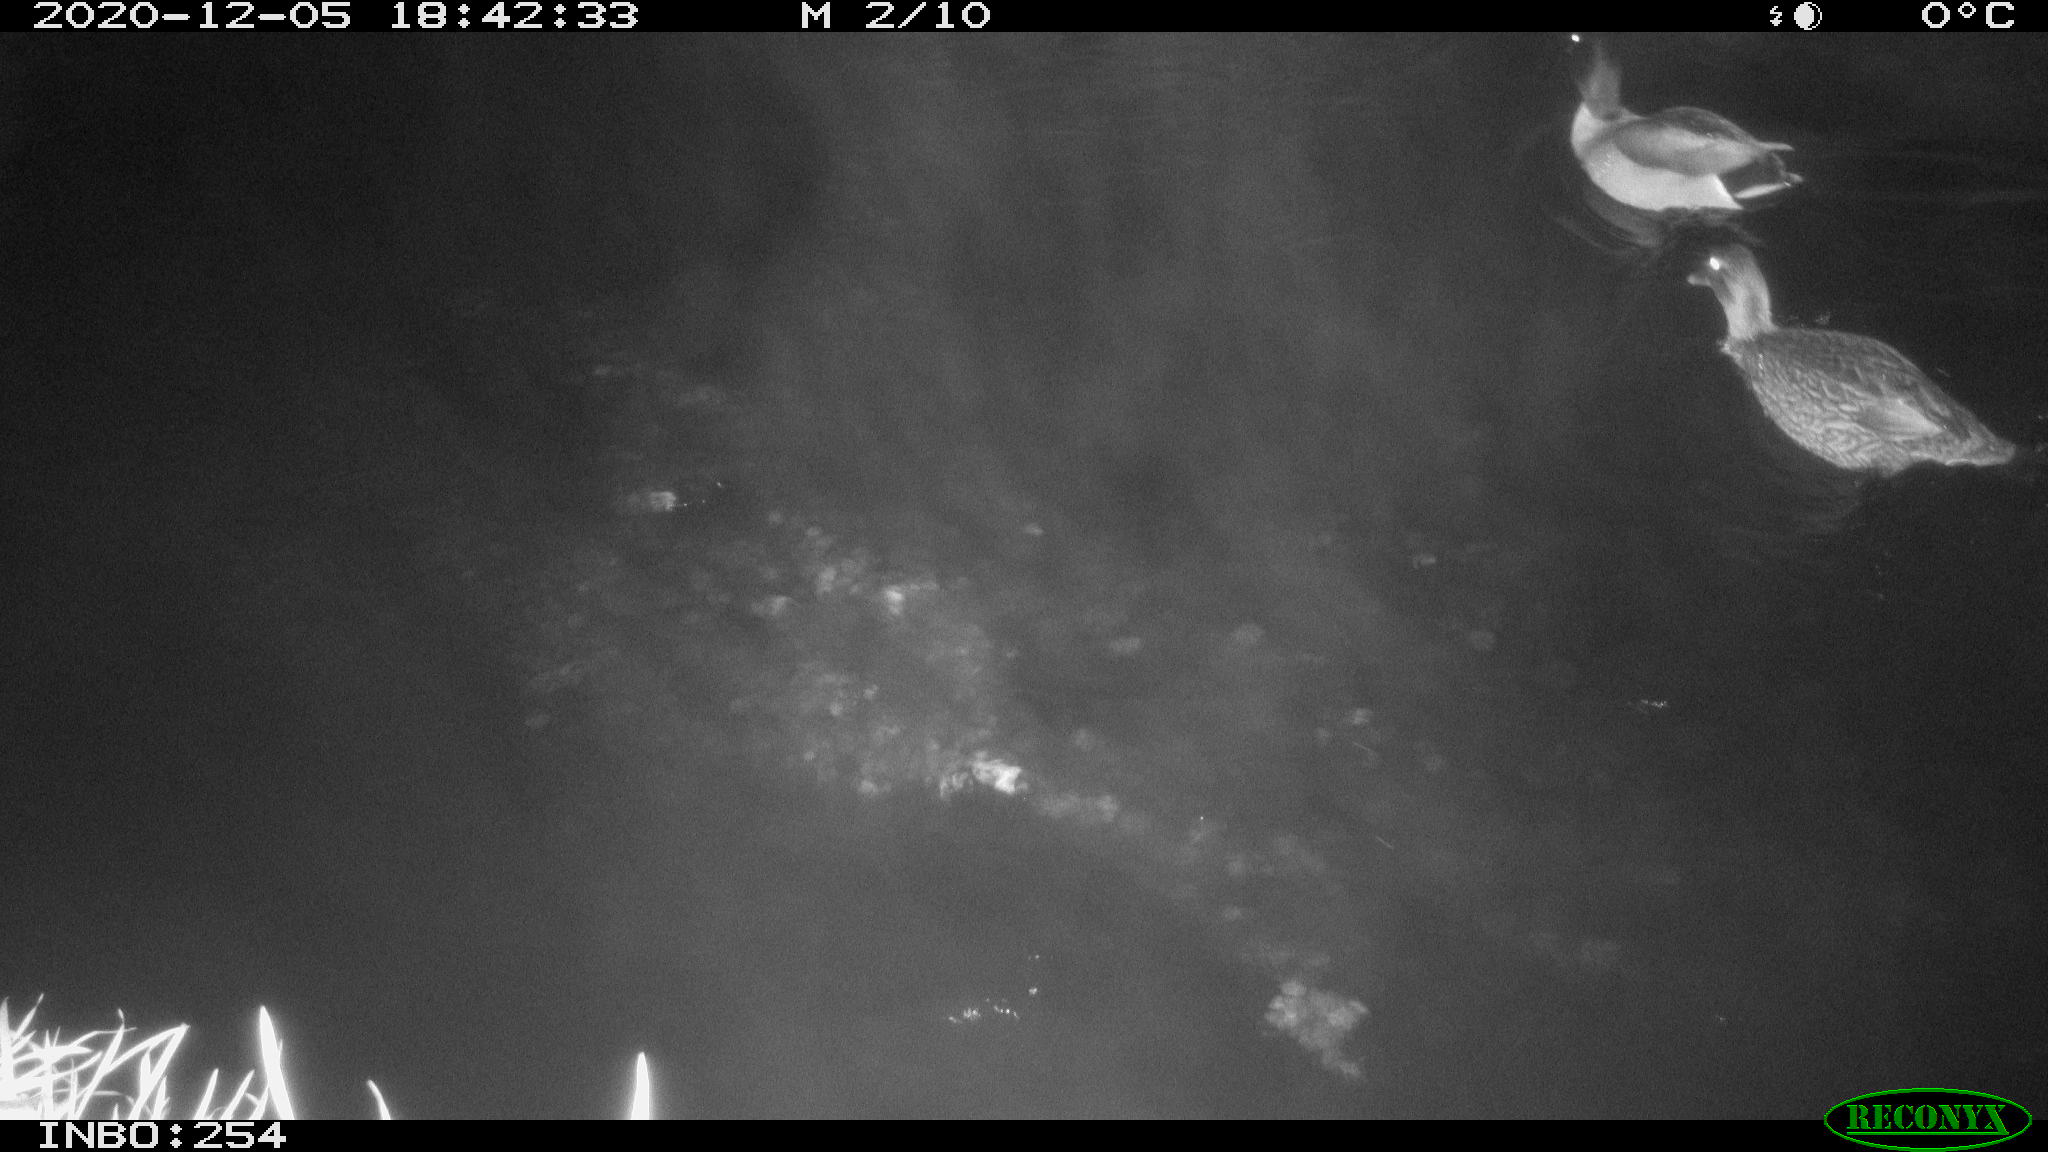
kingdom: Animalia
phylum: Chordata
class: Aves
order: Anseriformes
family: Anatidae
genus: Anas
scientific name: Anas platyrhynchos
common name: Mallard
